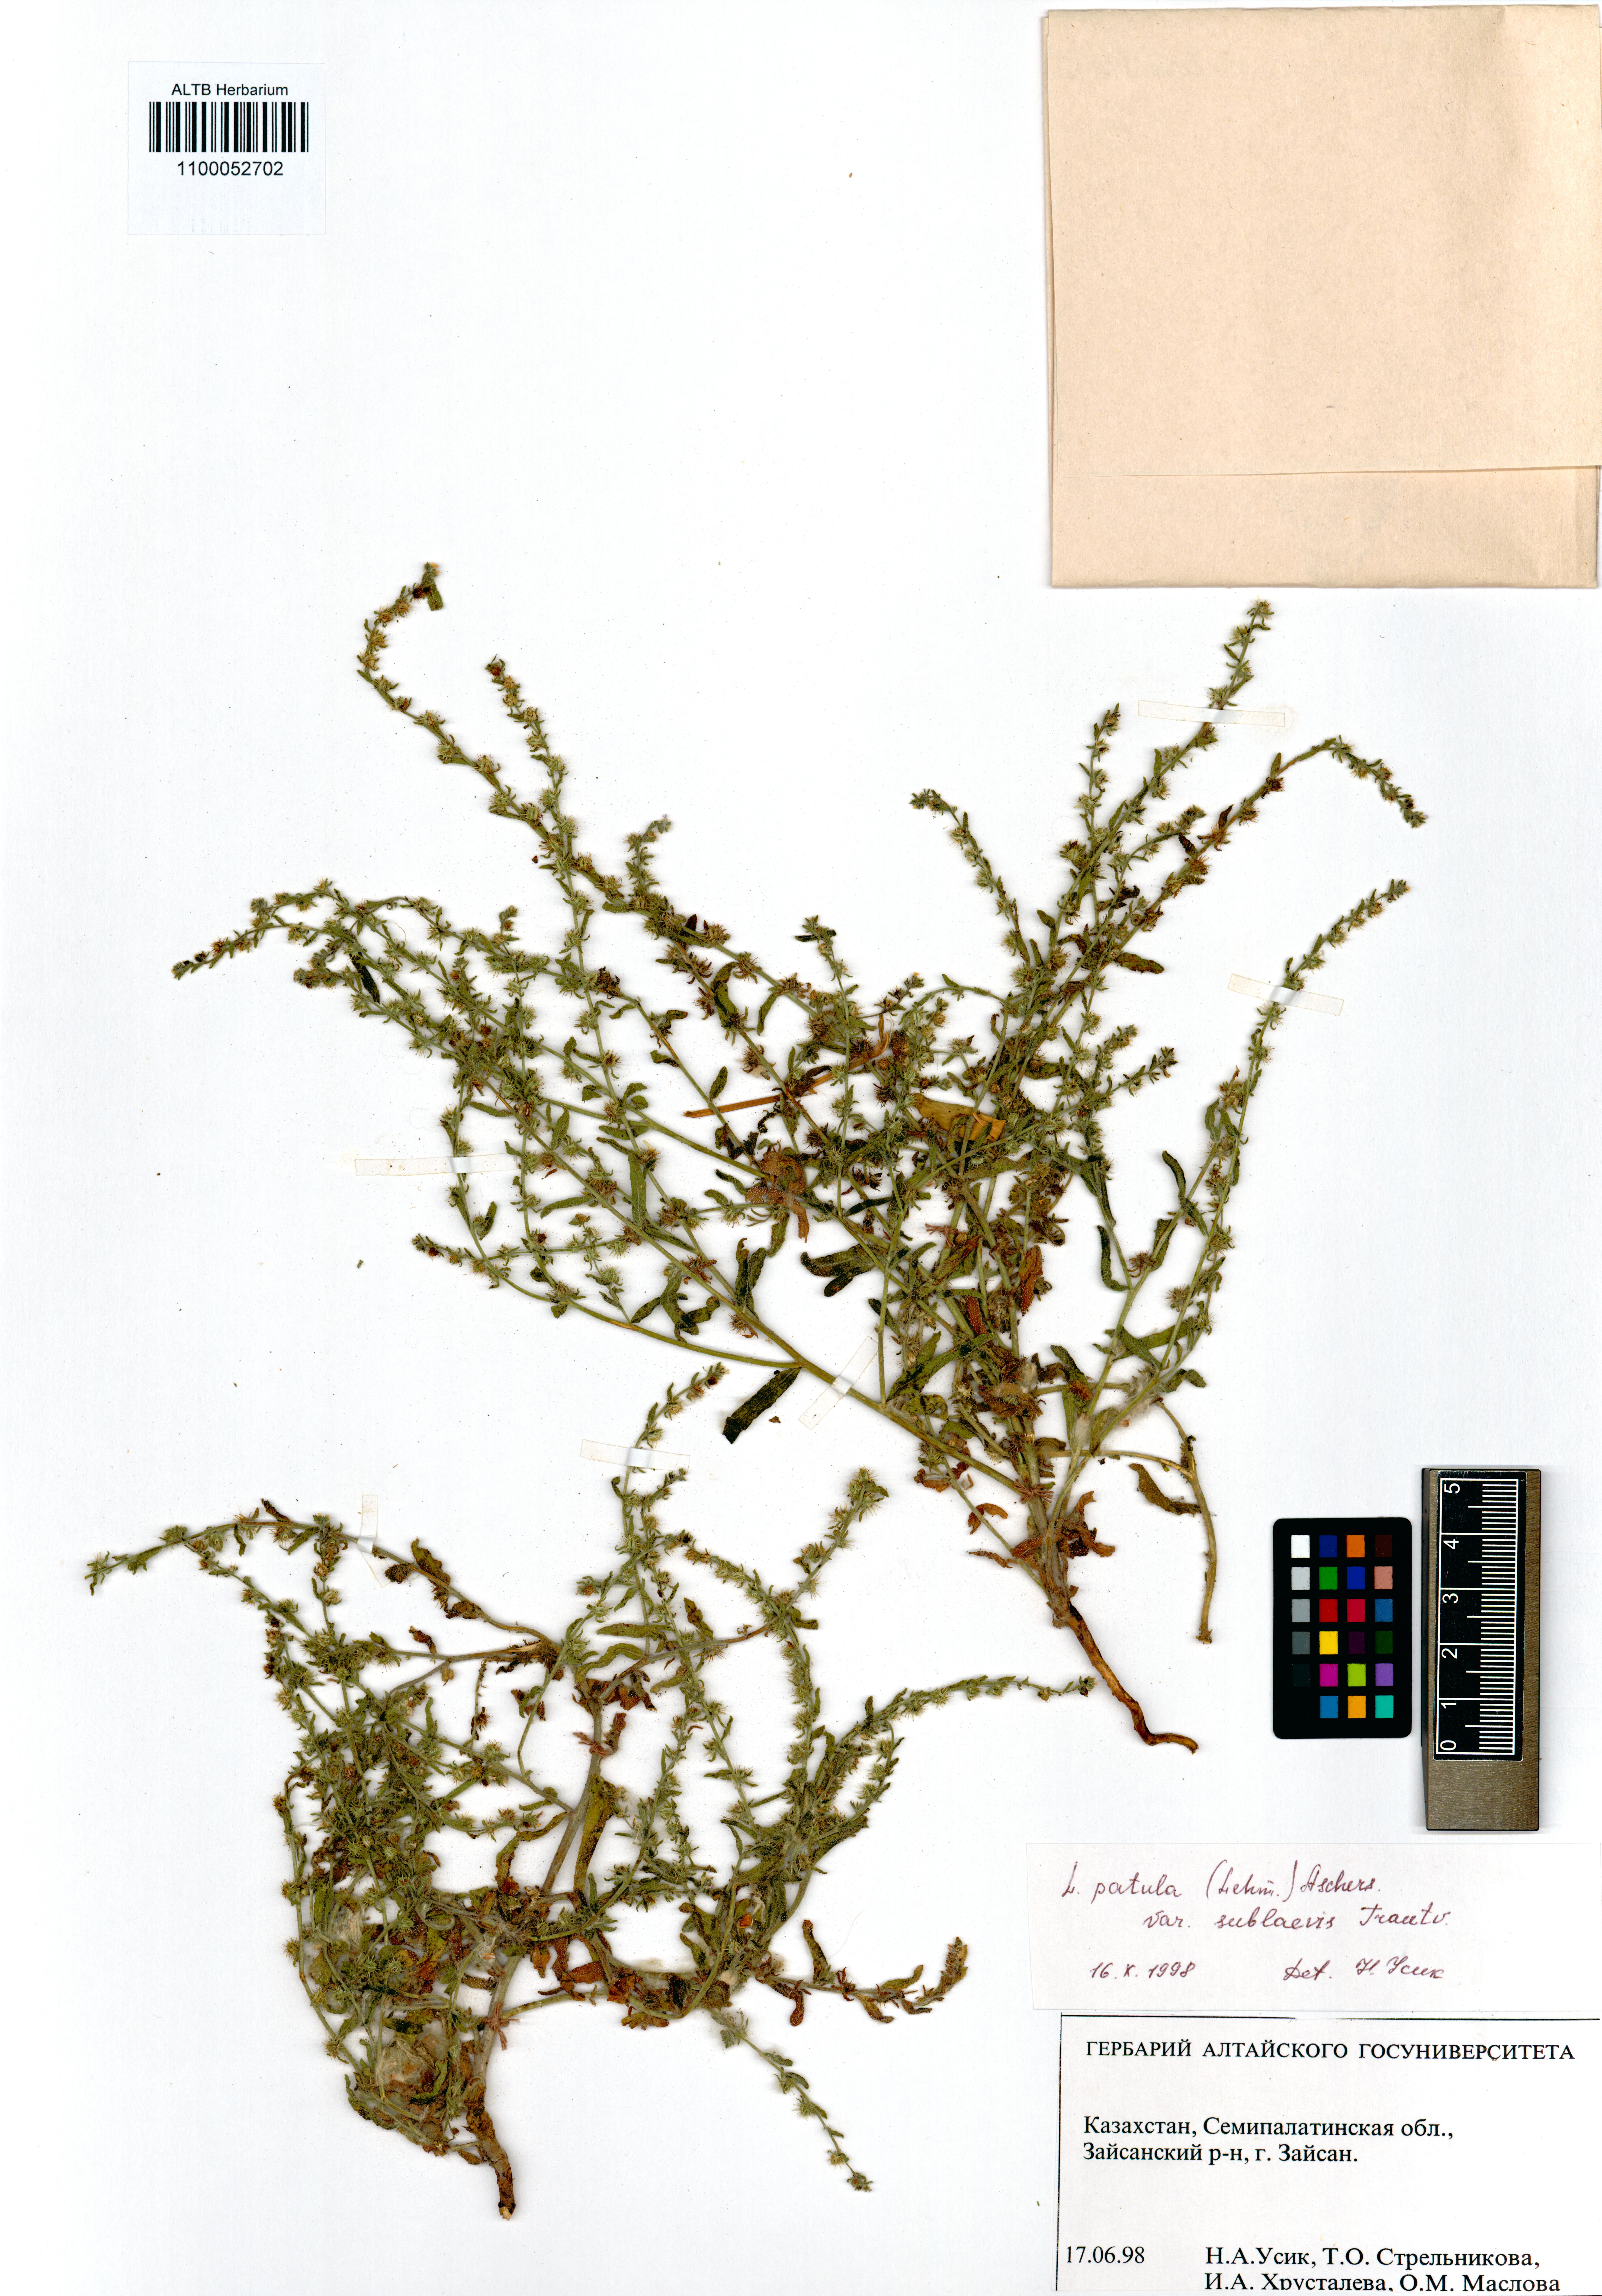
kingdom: Plantae
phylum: Tracheophyta
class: Magnoliopsida
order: Boraginales
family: Boraginaceae
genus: Lappula
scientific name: Lappula patula
